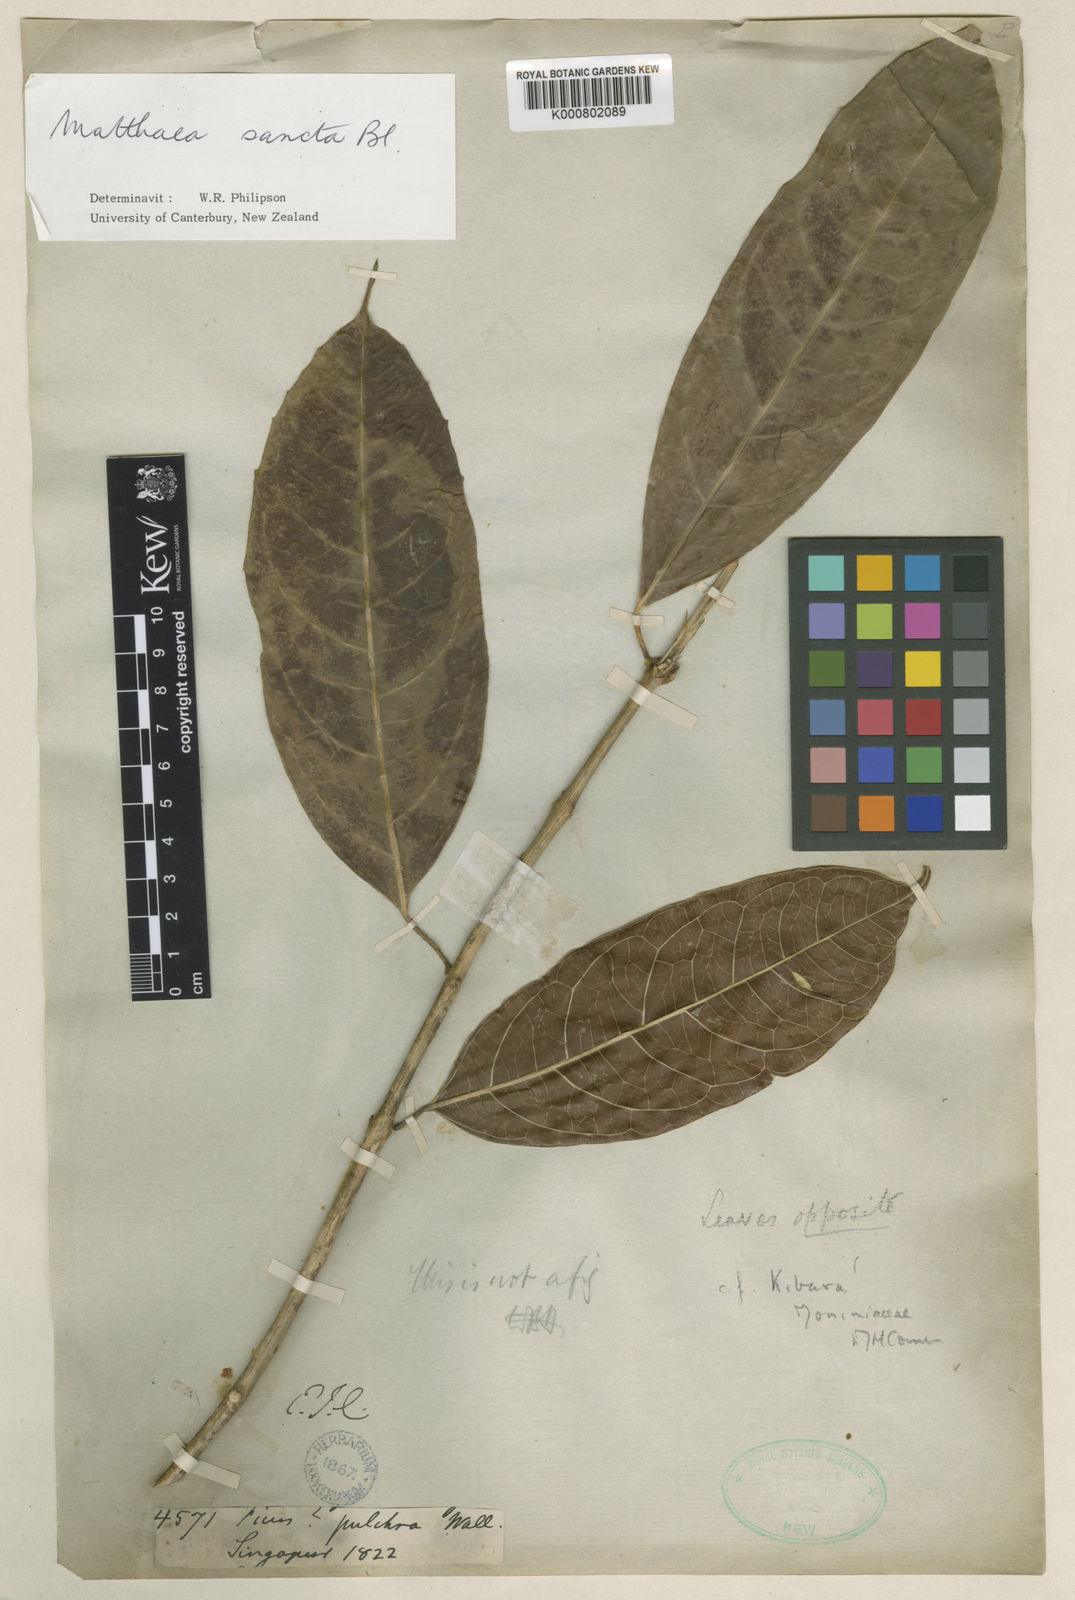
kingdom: Plantae
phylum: Tracheophyta
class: Magnoliopsida
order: Laurales
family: Monimiaceae
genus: Matthaea
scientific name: Matthaea sancta
